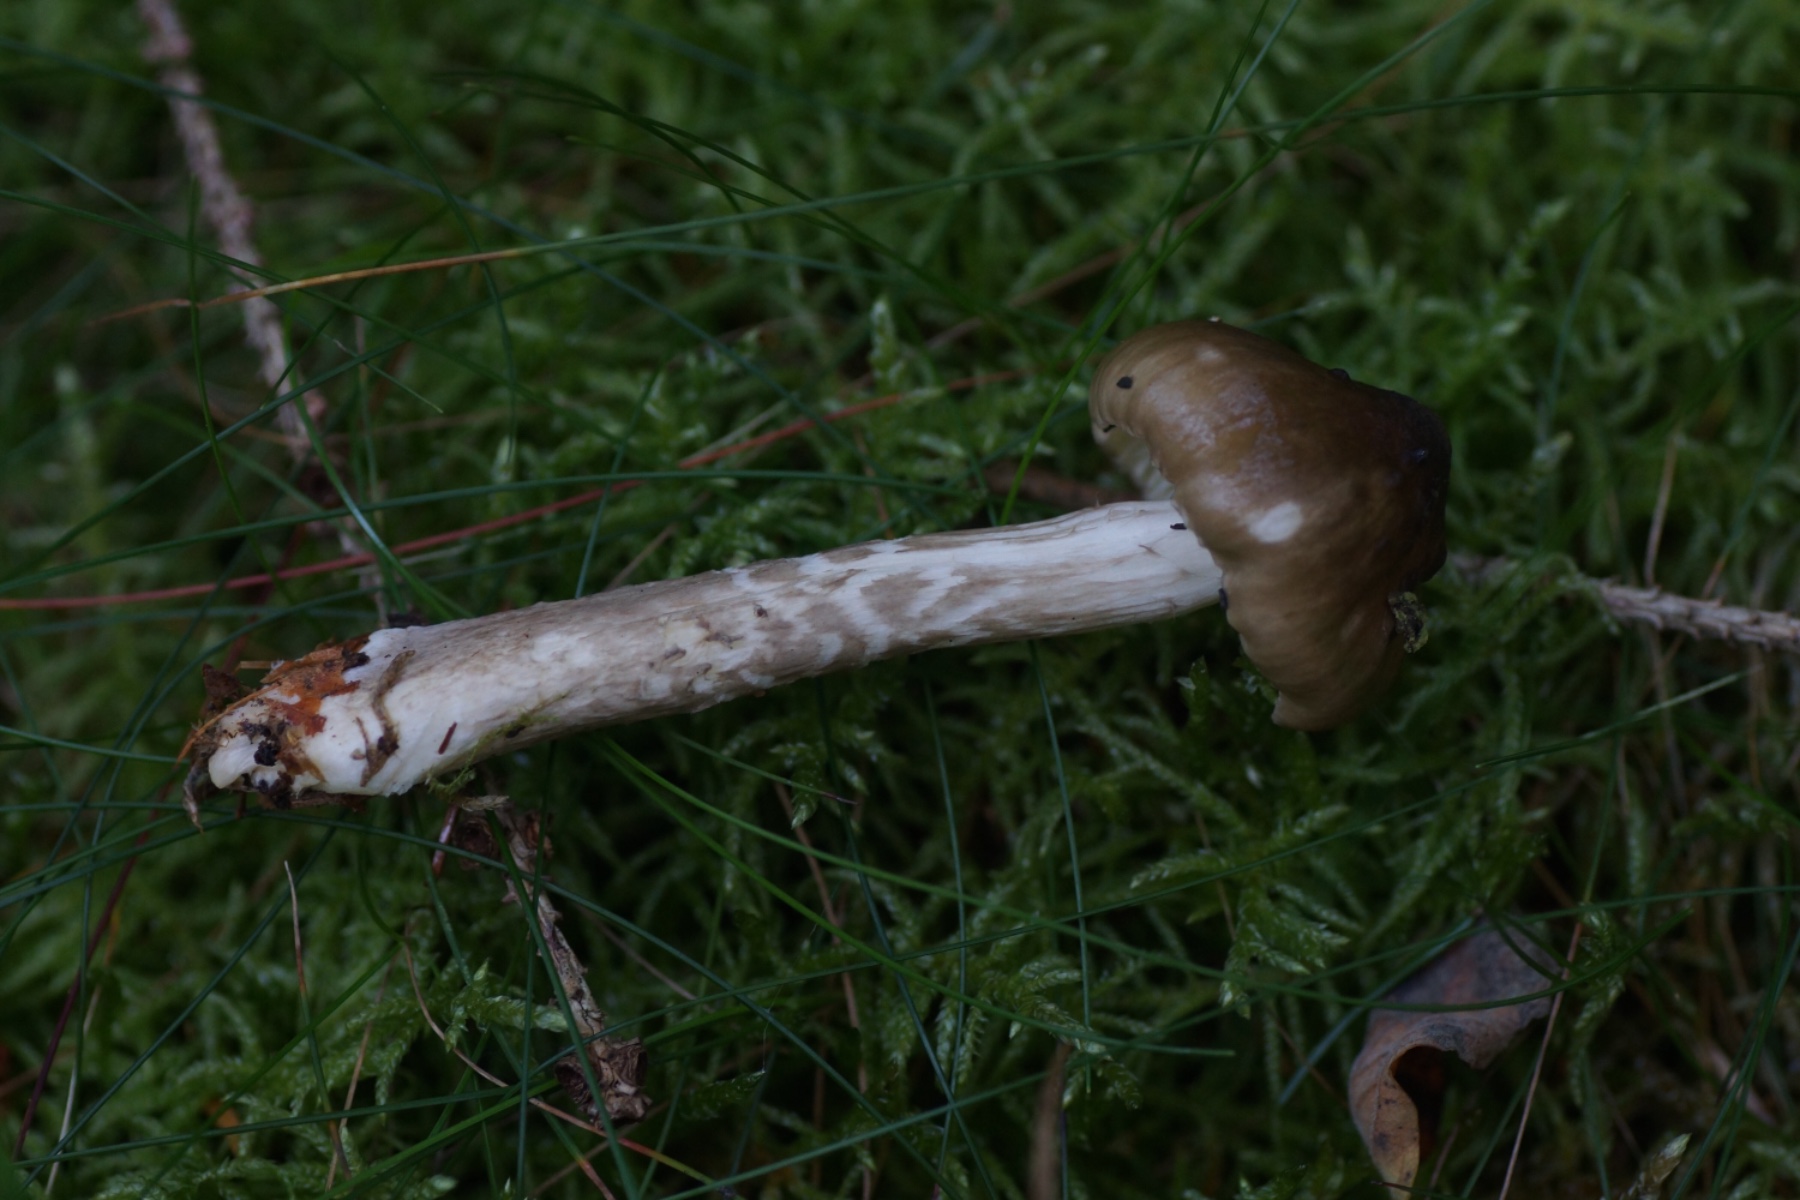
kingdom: Fungi
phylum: Basidiomycota
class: Agaricomycetes
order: Agaricales
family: Hygrophoraceae
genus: Hygrophorus
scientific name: Hygrophorus olivaceoalbus
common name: hvidbrun sneglehat
